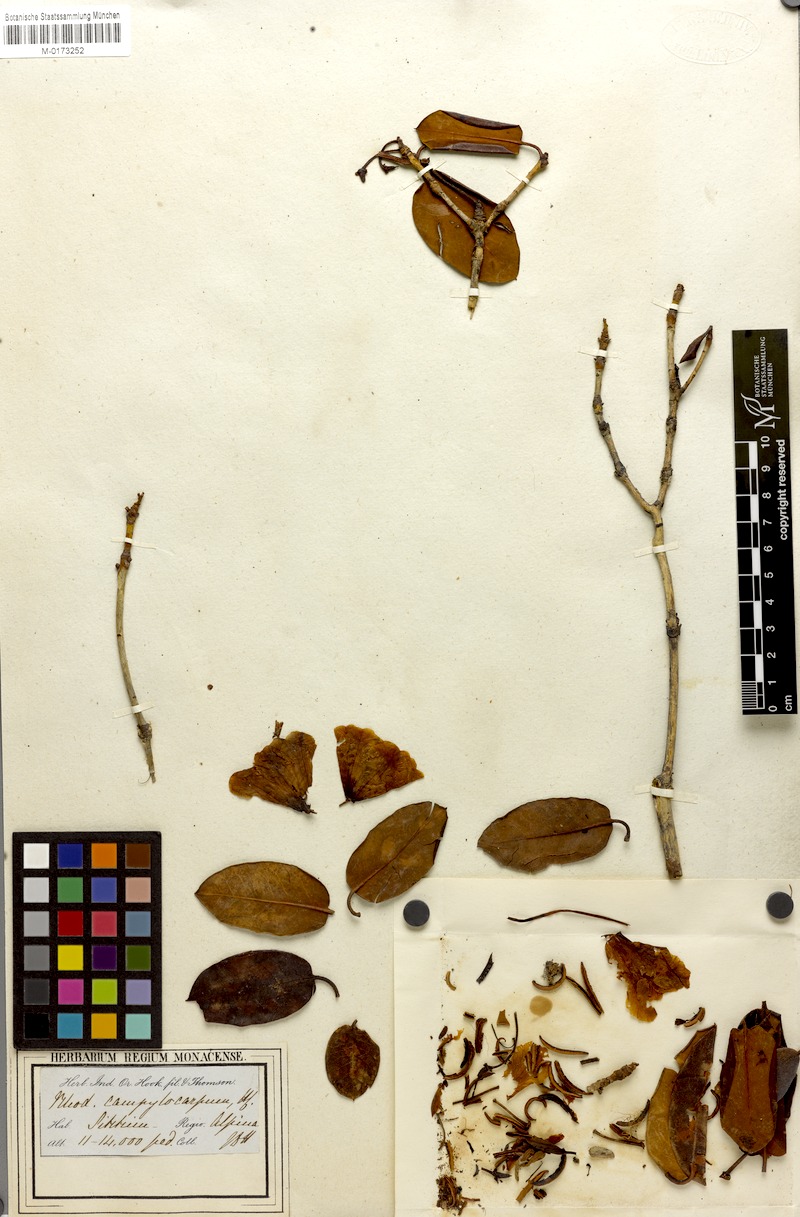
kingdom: Plantae
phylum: Tracheophyta
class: Magnoliopsida
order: Ericales
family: Ericaceae
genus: Rhododendron
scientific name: Rhododendron campylocarpum
